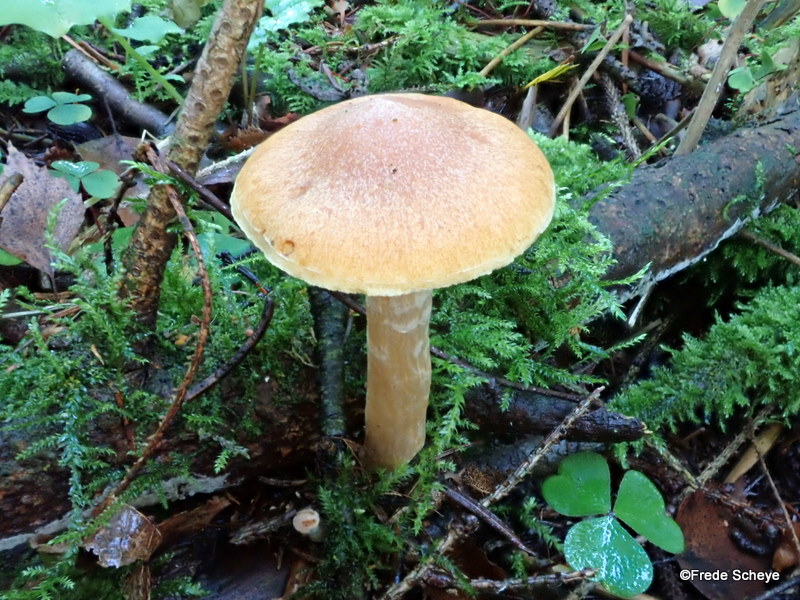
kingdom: Fungi
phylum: Basidiomycota
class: Agaricomycetes
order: Agaricales
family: Hymenogastraceae
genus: Gymnopilus
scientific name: Gymnopilus penetrans
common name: plettet flammehat
